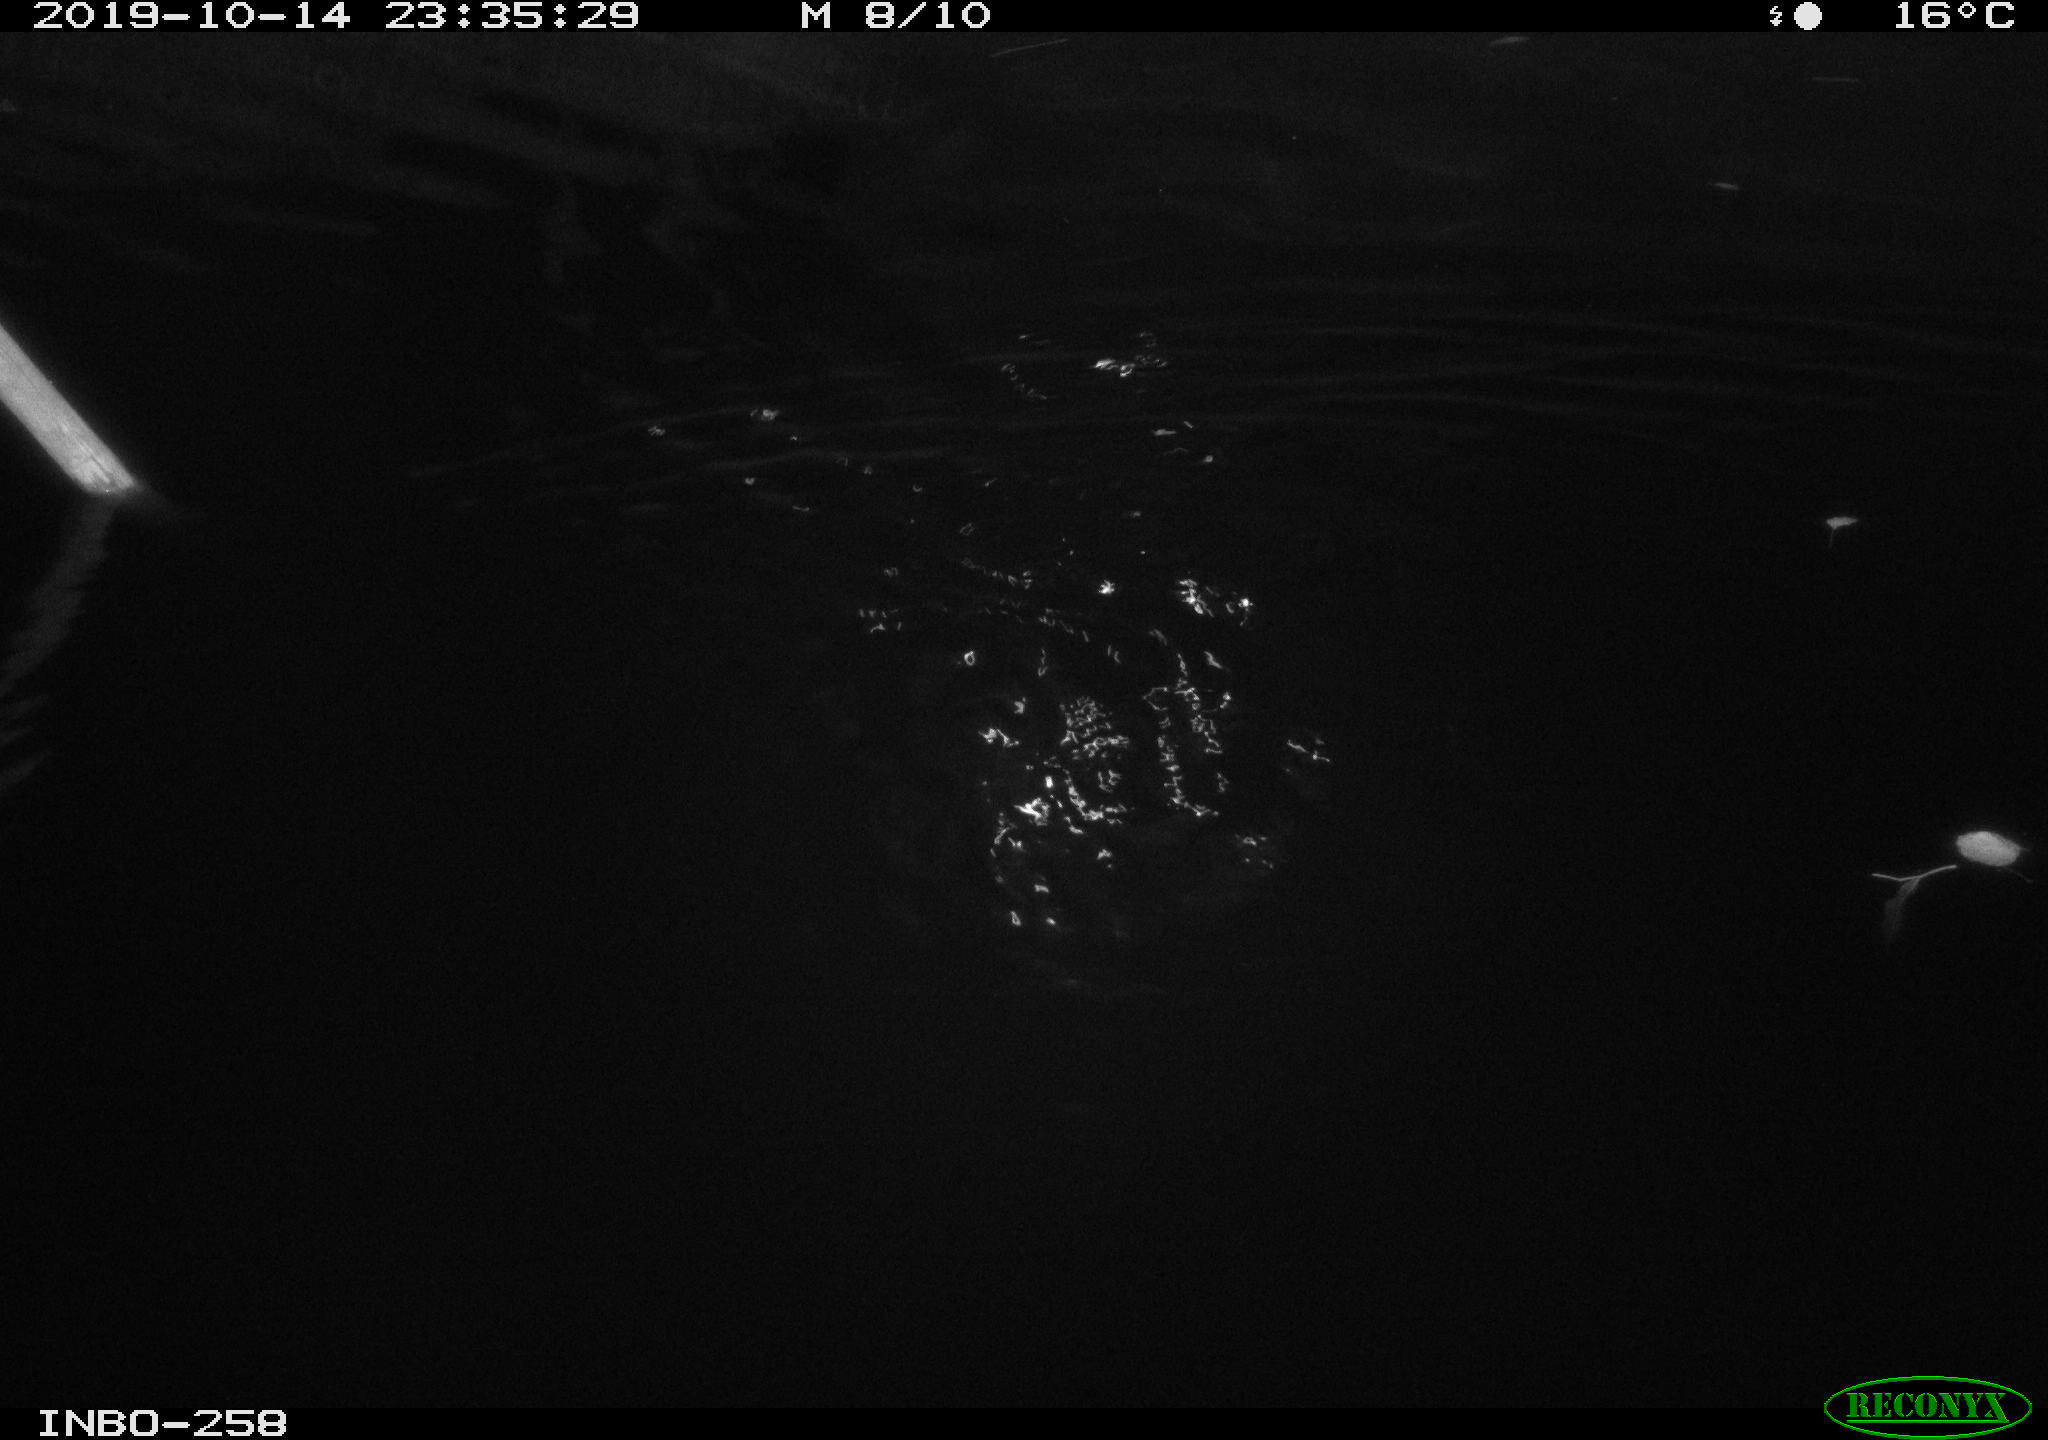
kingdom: Animalia
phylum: Chordata
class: Aves
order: Anseriformes
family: Anatidae
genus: Anas
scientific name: Anas platyrhynchos
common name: Mallard
